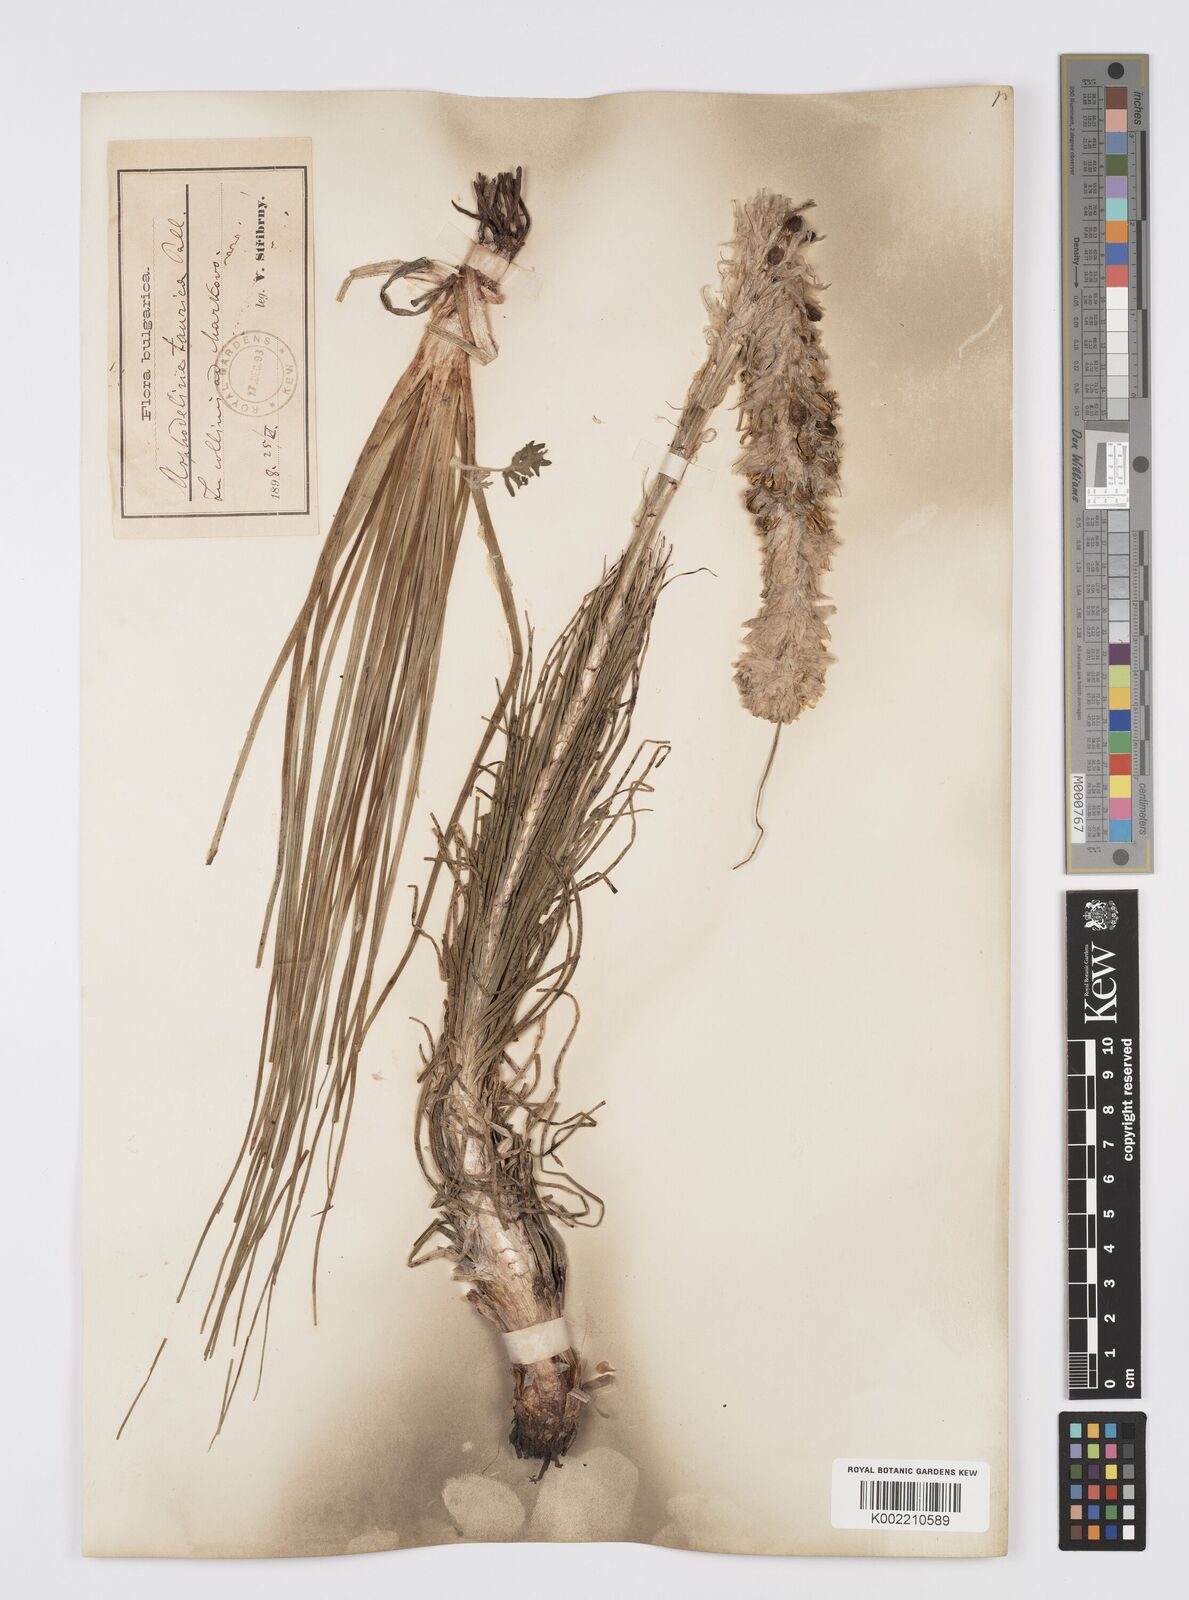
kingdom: Plantae
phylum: Tracheophyta
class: Liliopsida
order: Asparagales
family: Asphodelaceae
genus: Asphodeline
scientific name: Asphodeline taurica
